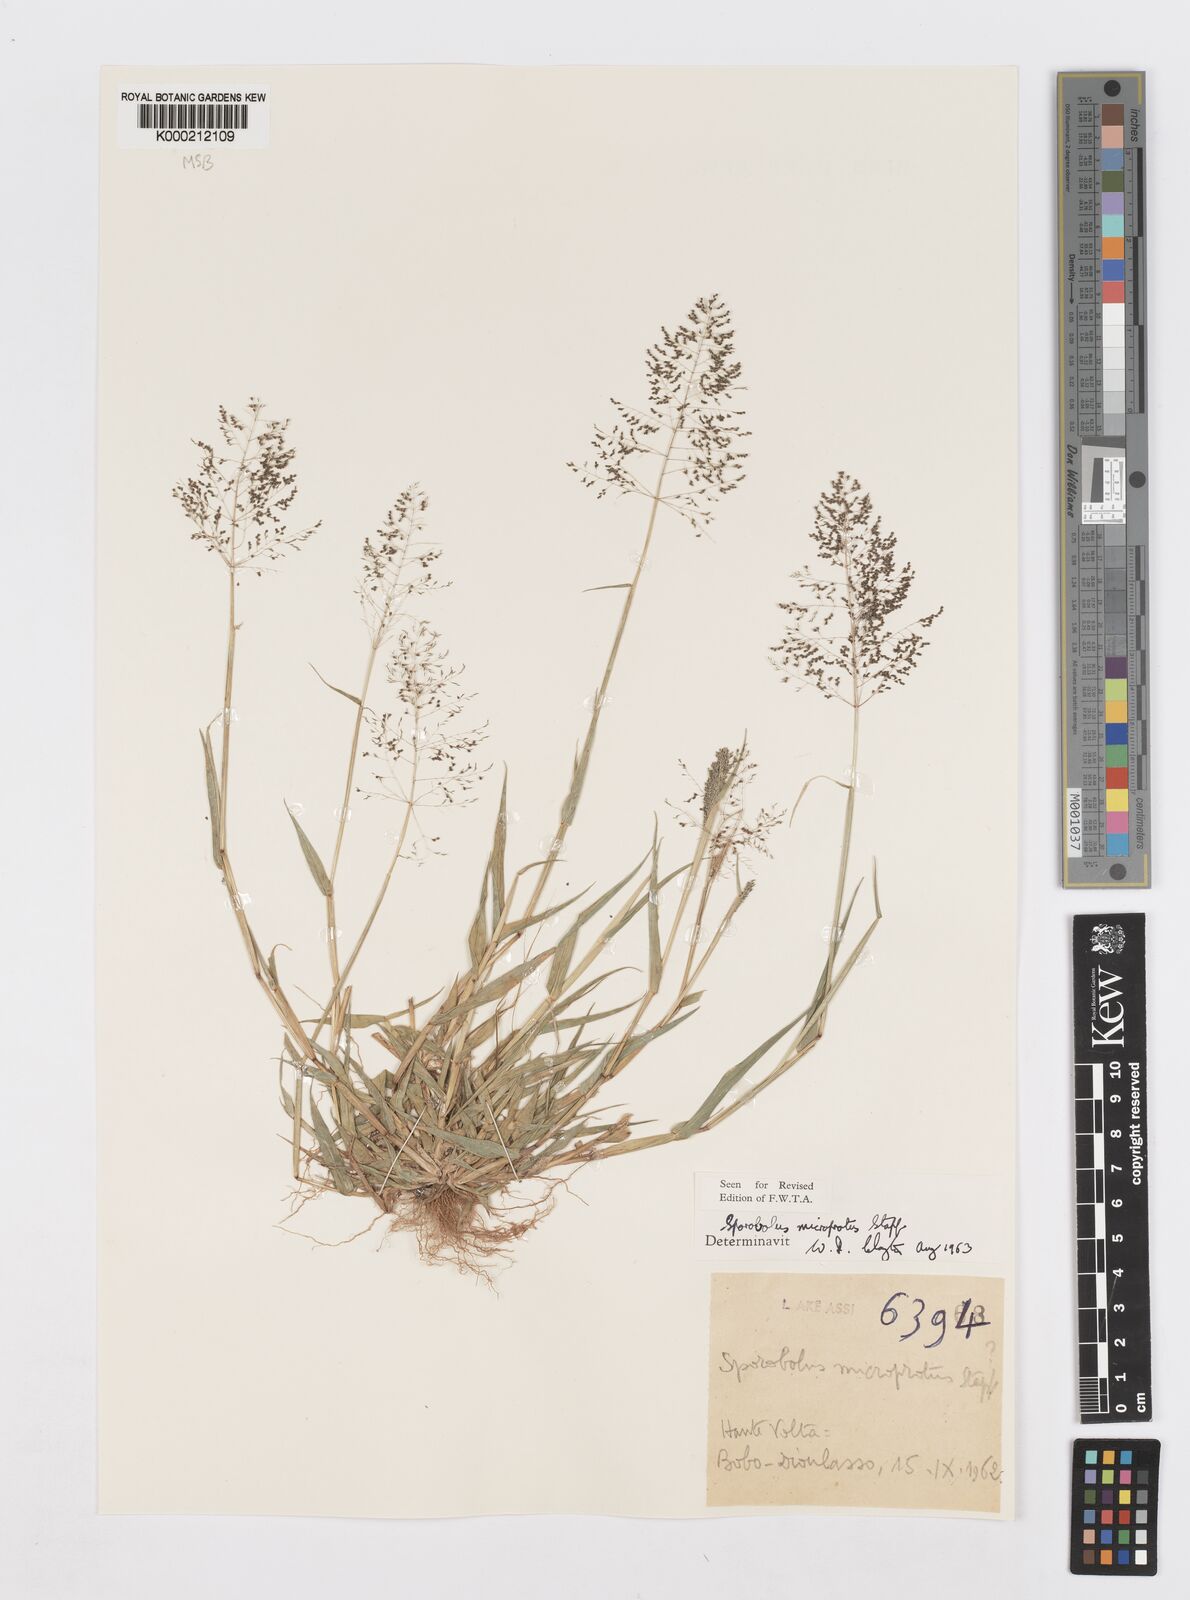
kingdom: Plantae
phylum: Tracheophyta
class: Liliopsida
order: Poales
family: Poaceae
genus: Sporobolus
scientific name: Sporobolus microprotus
